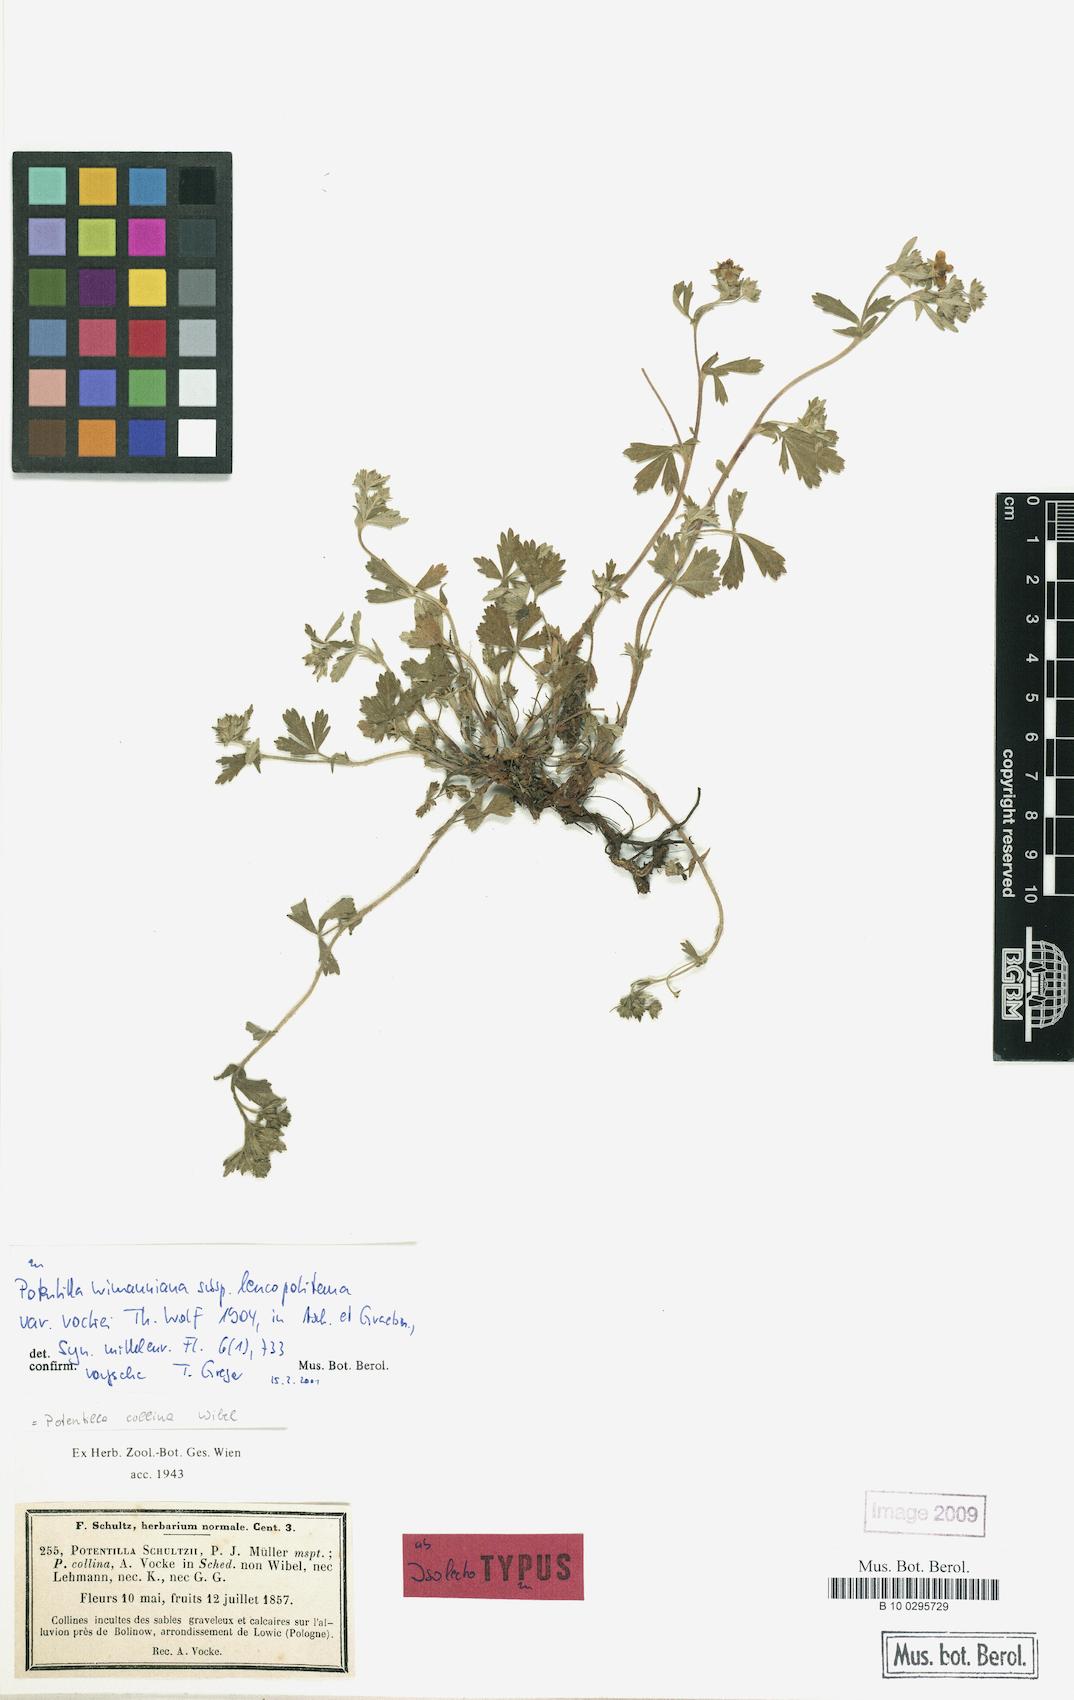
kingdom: Plantae
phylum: Tracheophyta
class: Magnoliopsida
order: Rosales
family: Rosaceae
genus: Potentilla
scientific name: Potentilla
